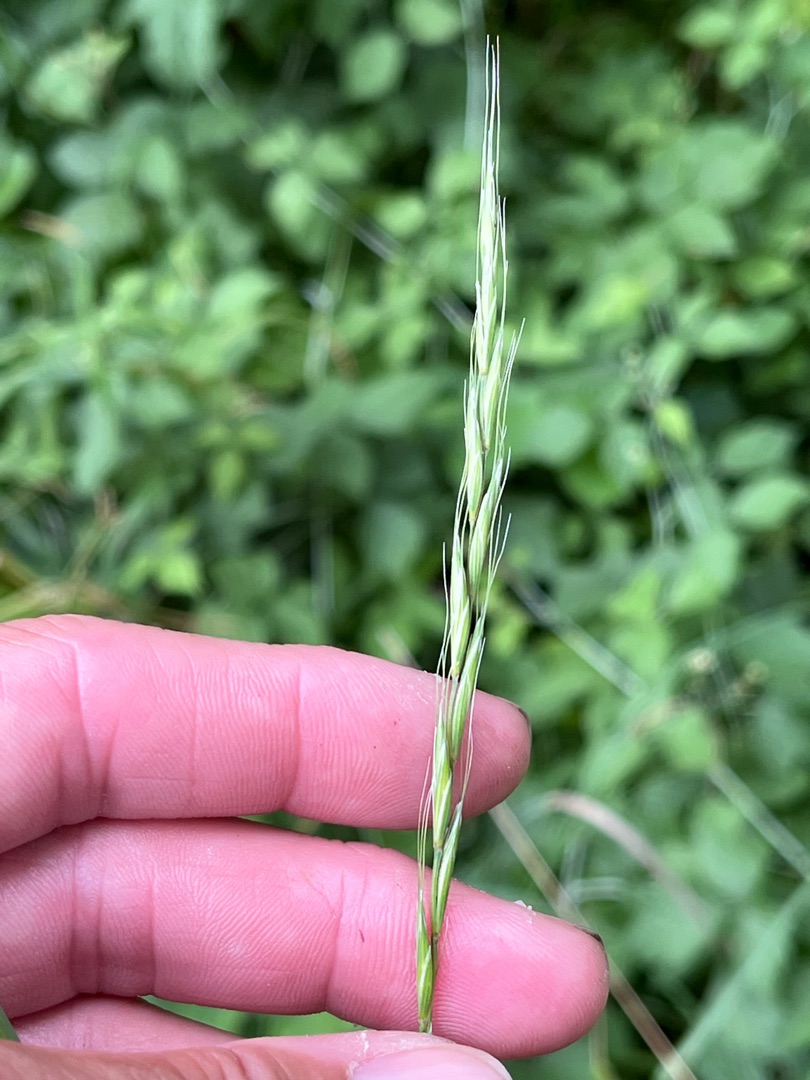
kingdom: Plantae
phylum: Tracheophyta
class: Liliopsida
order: Poales
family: Poaceae
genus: Elymus
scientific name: Elymus caninus
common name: Hundekvik
